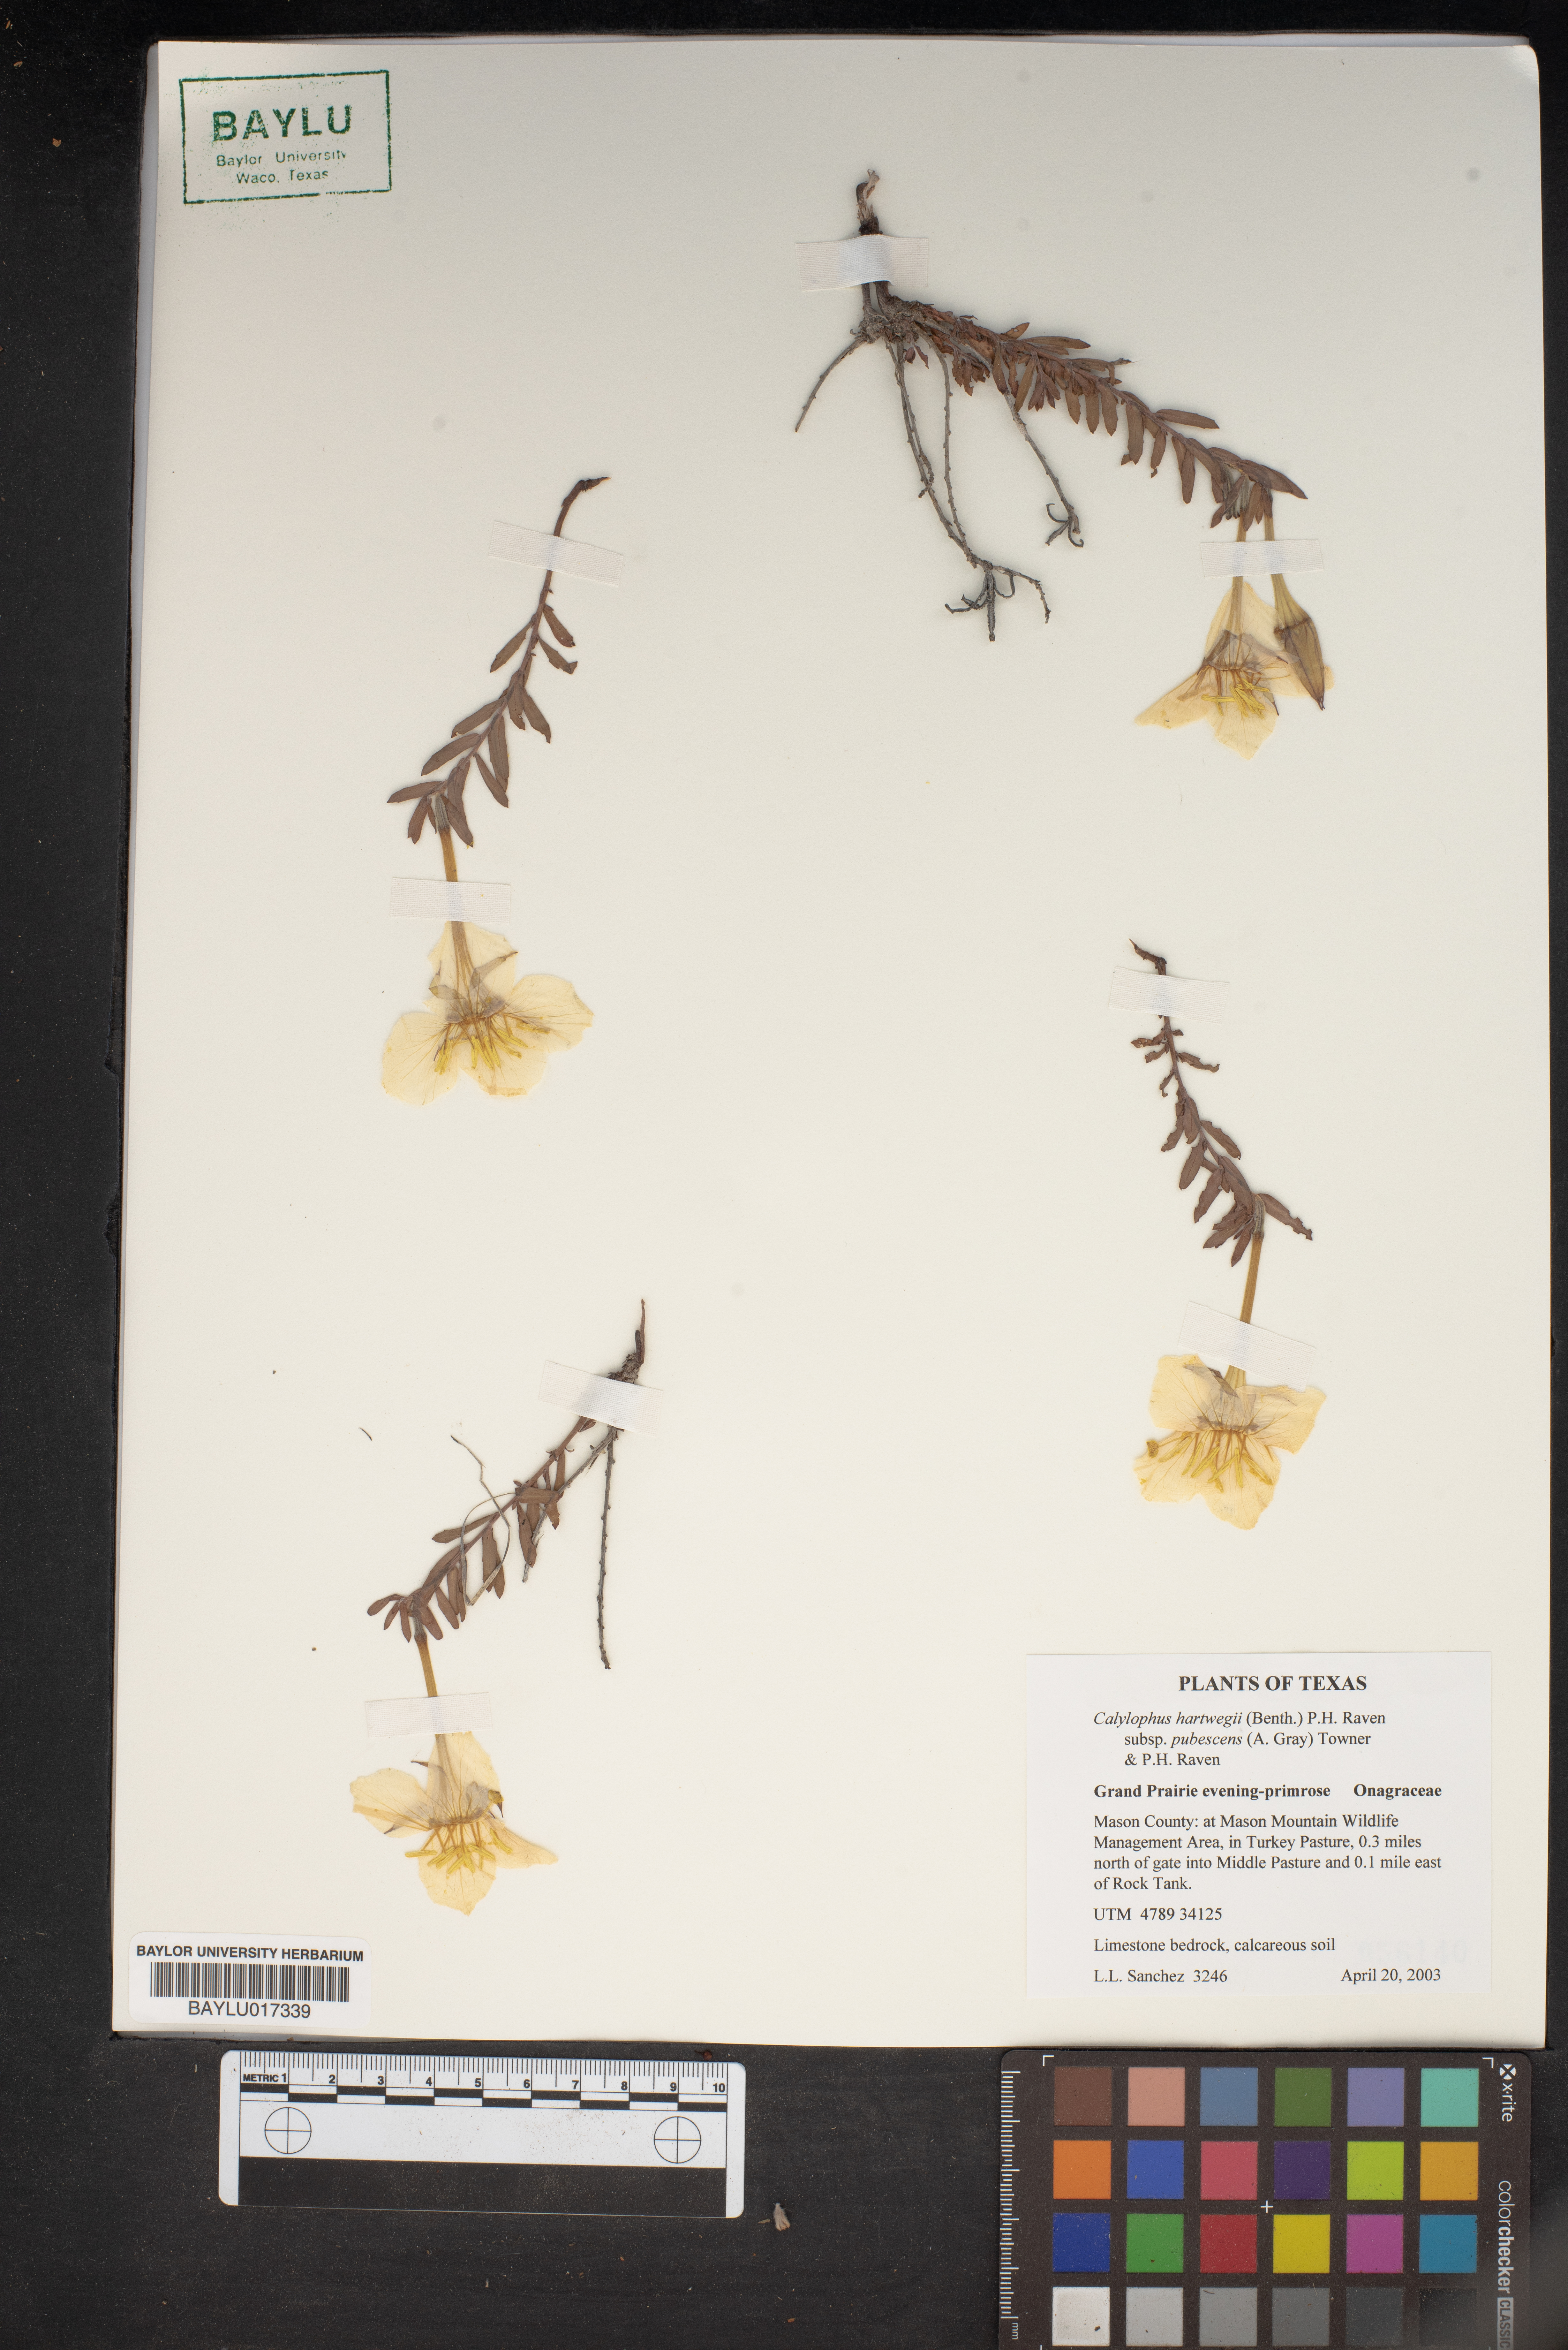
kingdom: Plantae
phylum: Tracheophyta
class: Magnoliopsida
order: Myrtales
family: Onagraceae
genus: Oenothera
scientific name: Oenothera hartwegii
